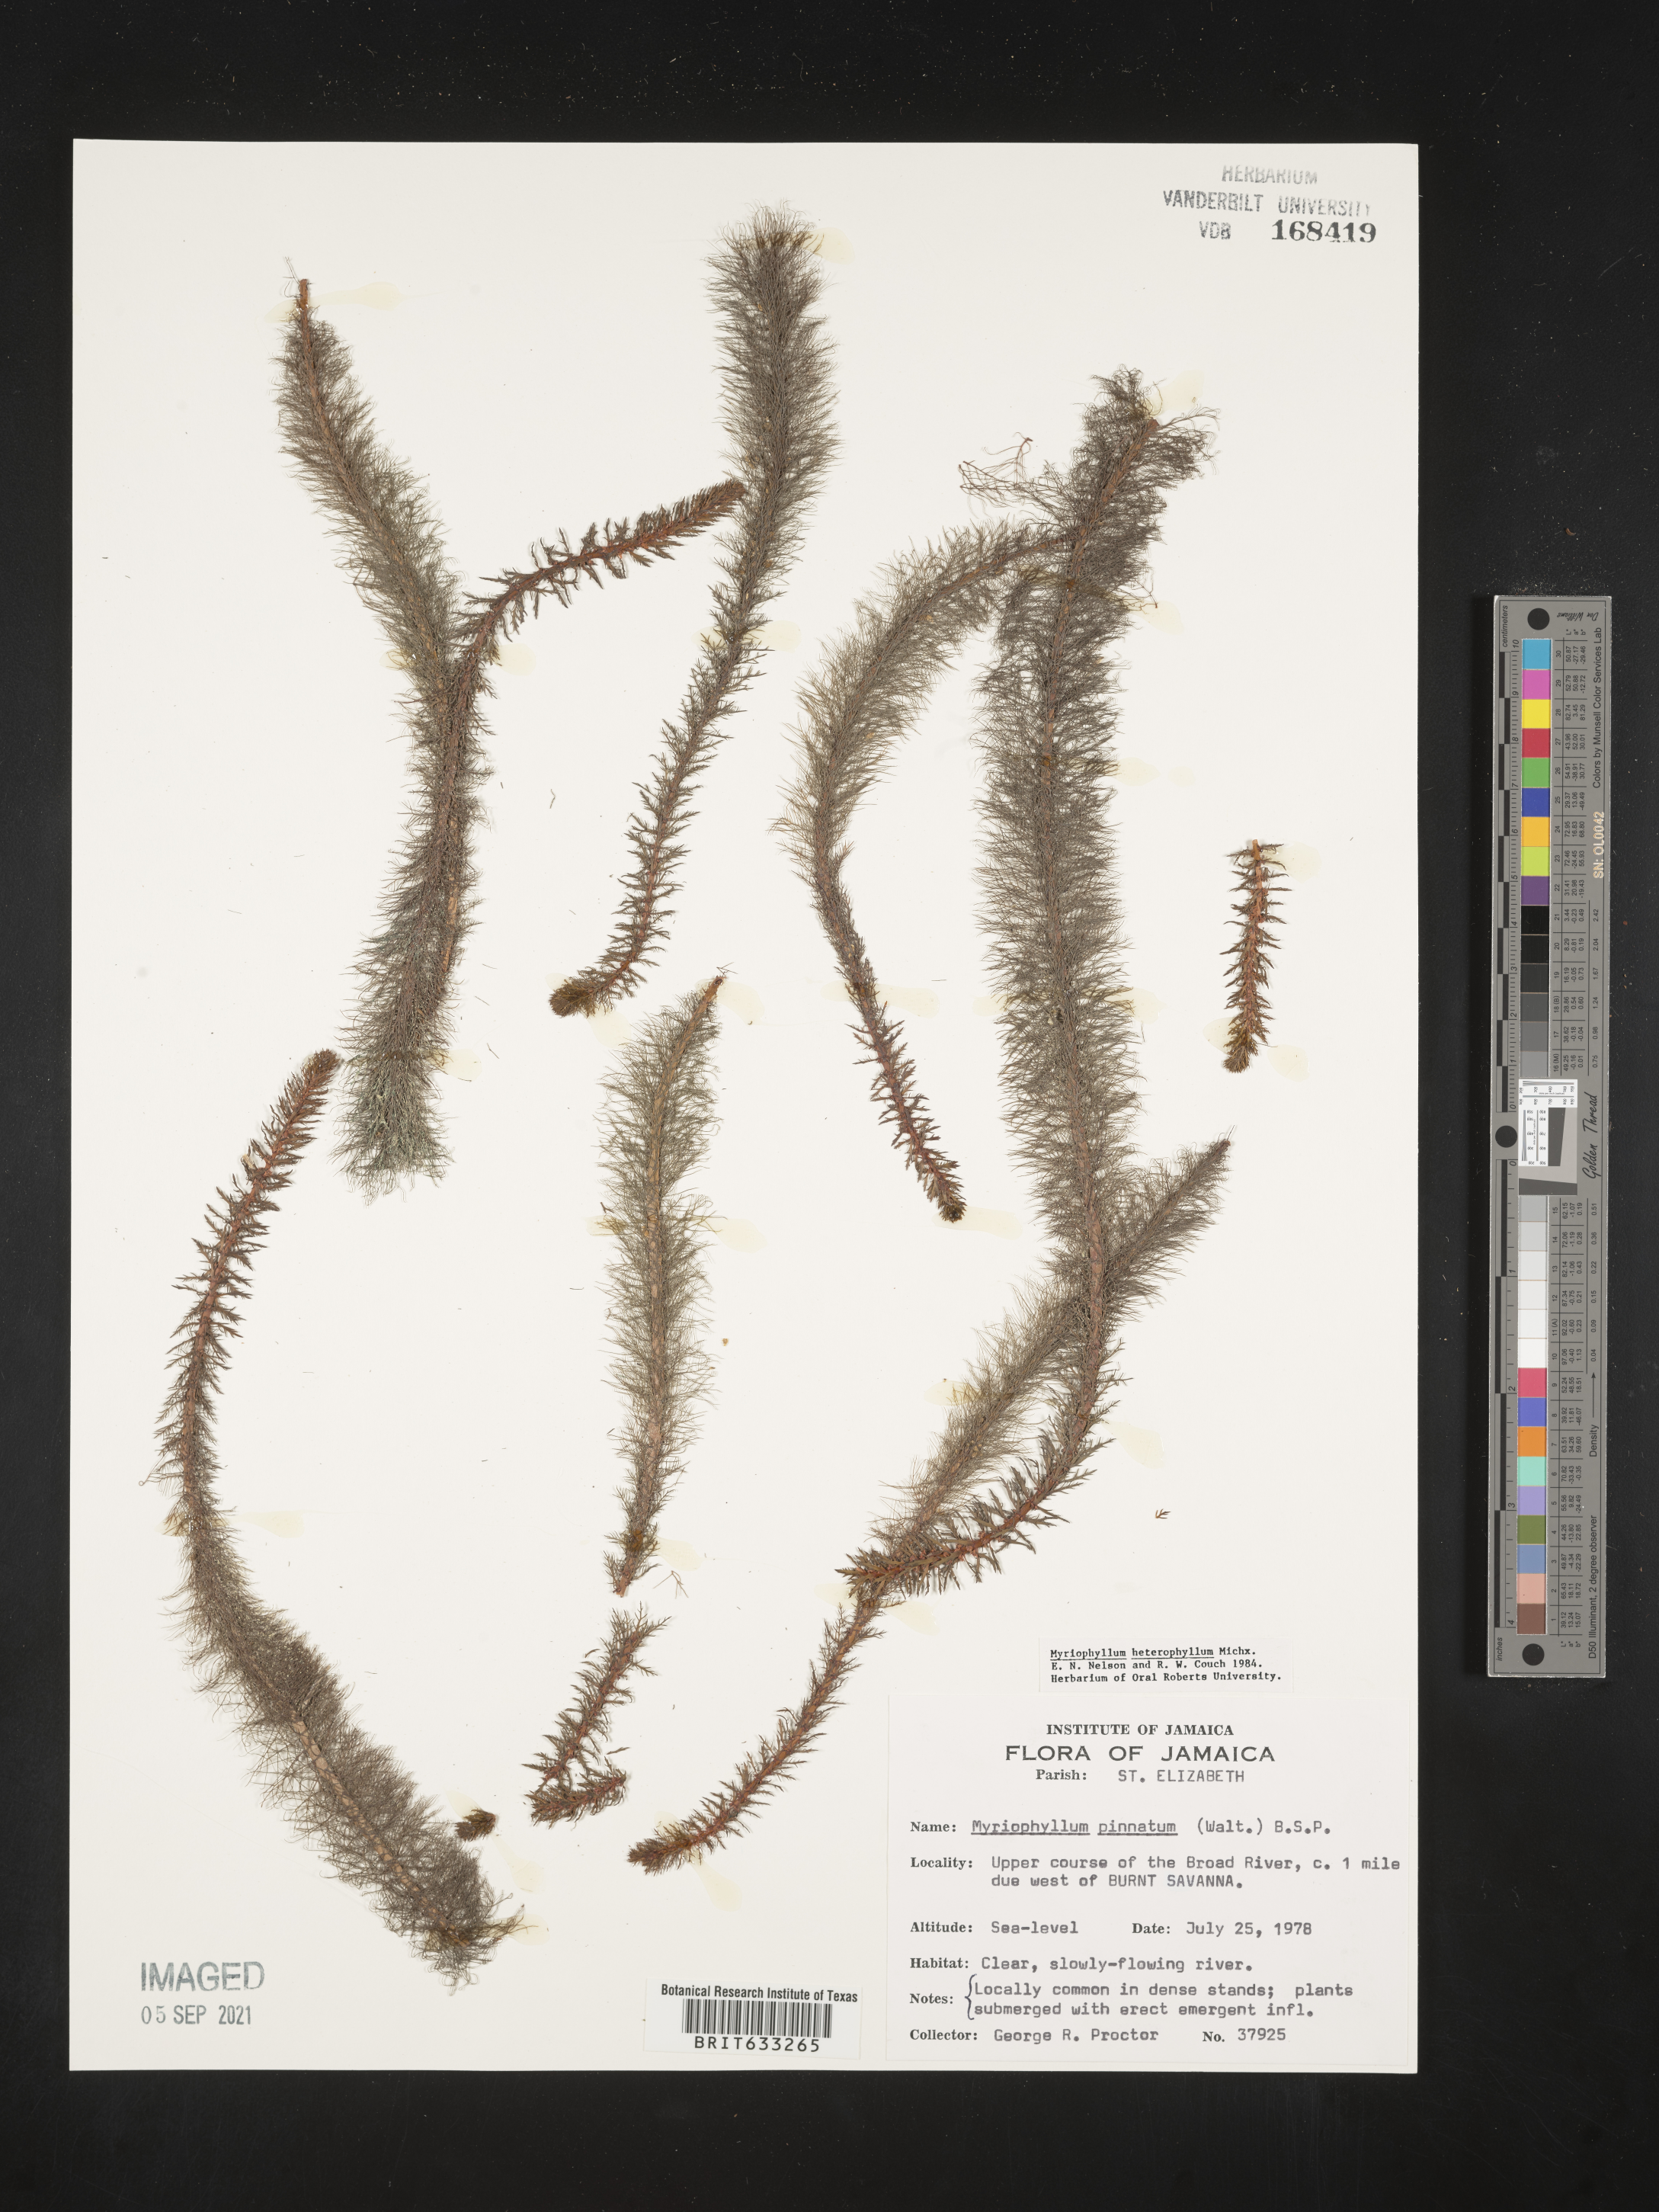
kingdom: Plantae
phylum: Tracheophyta
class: Magnoliopsida
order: Saxifragales
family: Haloragaceae
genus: Myriophyllum
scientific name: Myriophyllum
